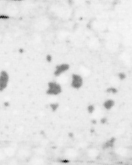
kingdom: Animalia
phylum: Chordata
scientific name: Chordata
